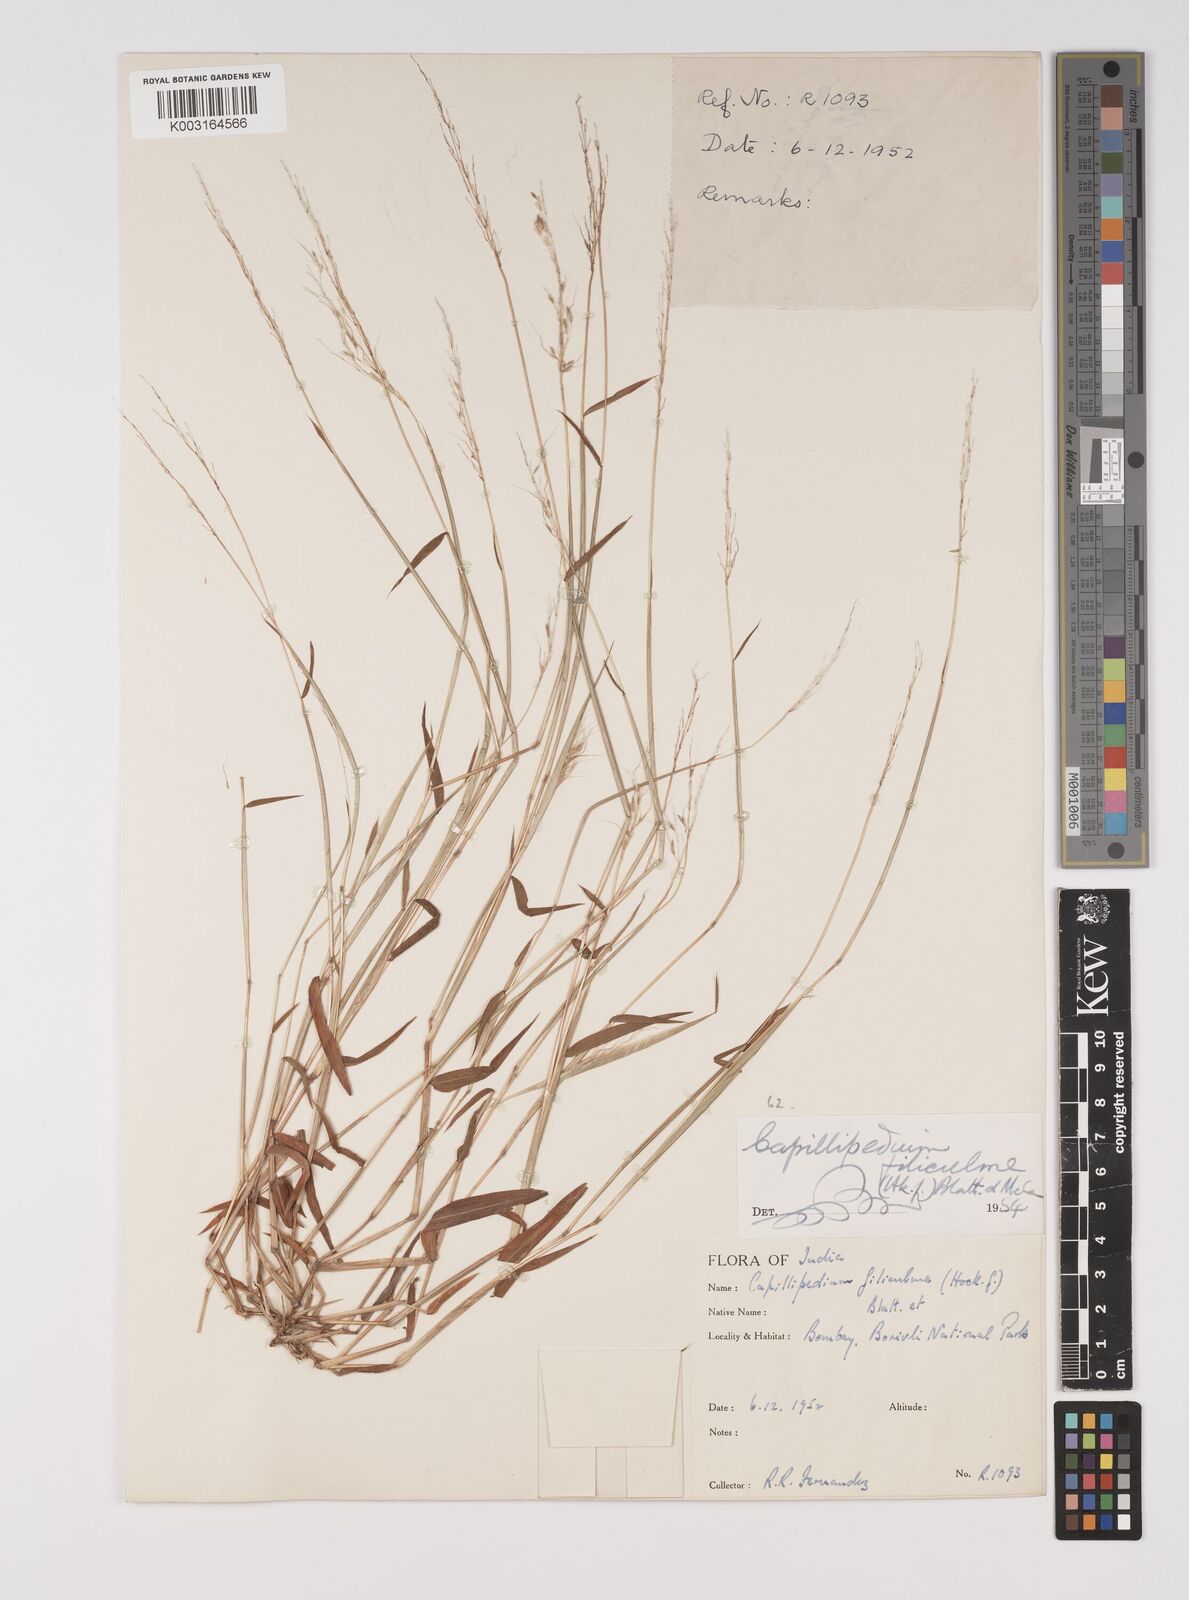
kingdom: Plantae
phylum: Tracheophyta
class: Liliopsida
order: Poales
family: Poaceae
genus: Capillipedium
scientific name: Capillipedium filiculme
